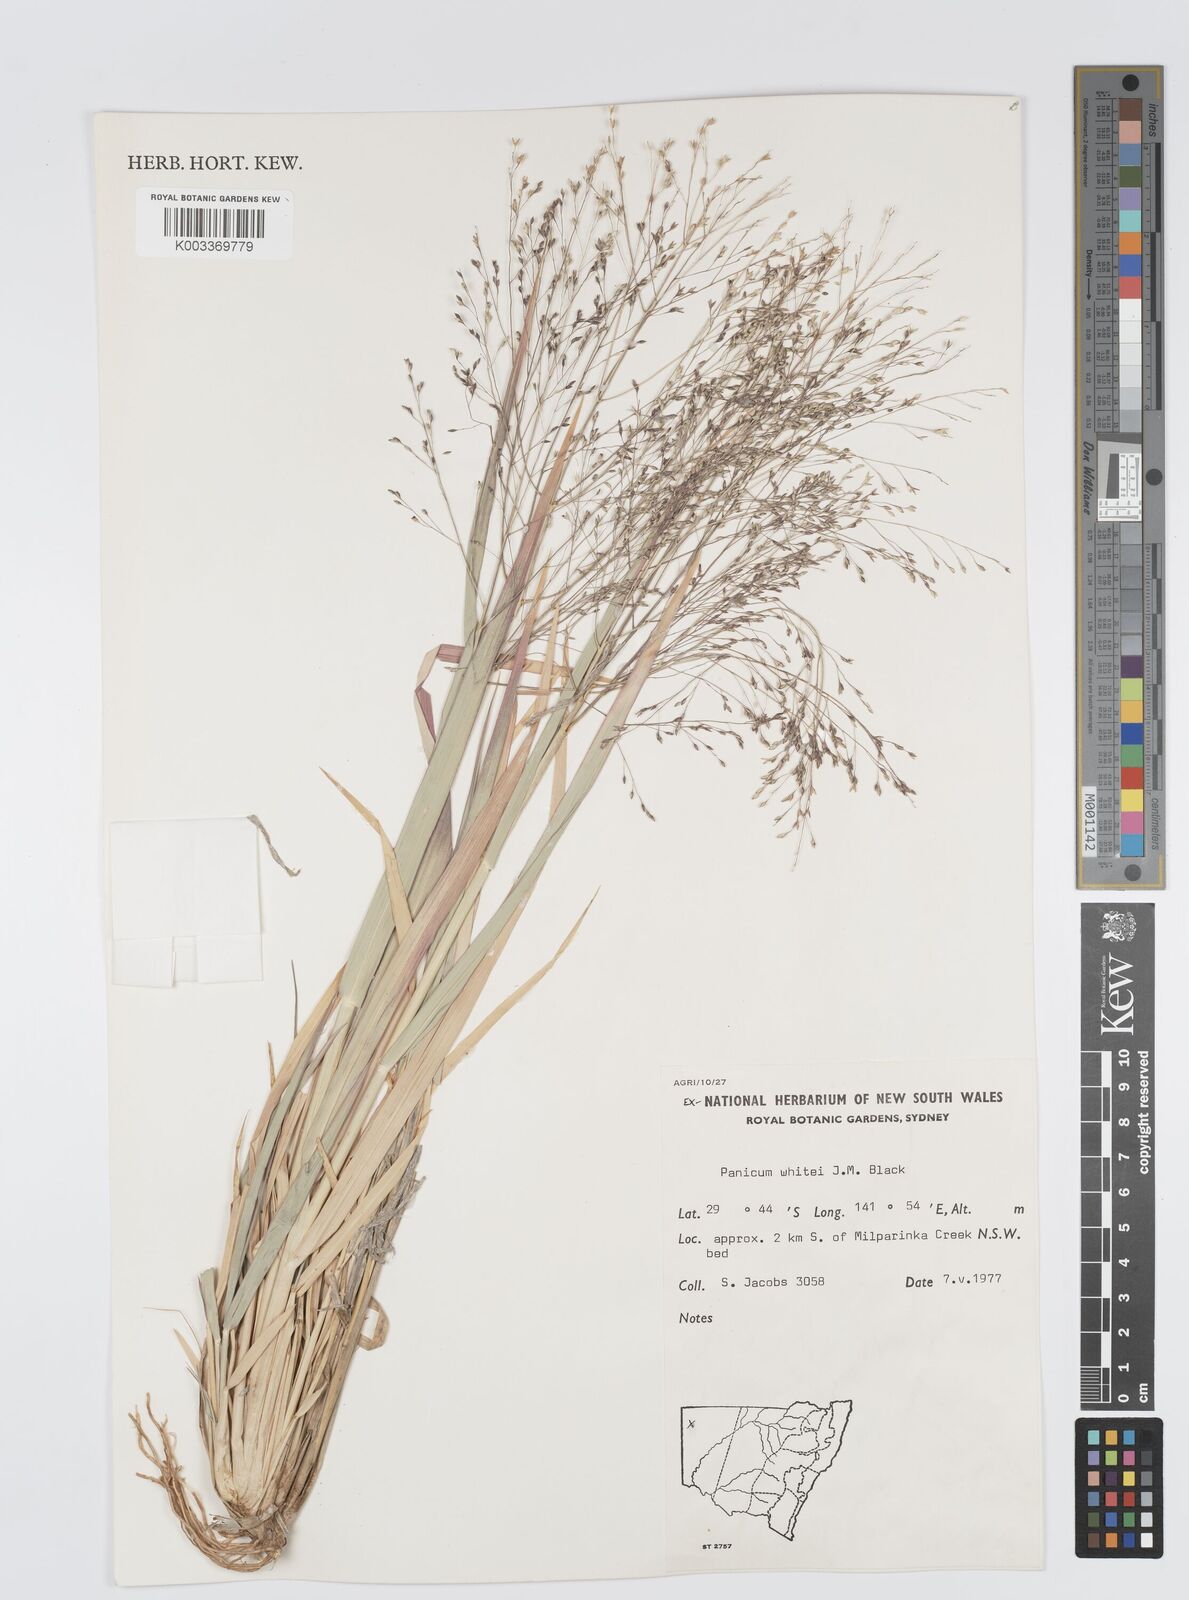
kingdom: Plantae
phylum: Tracheophyta
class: Liliopsida
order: Poales
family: Poaceae
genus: Panicum
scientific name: Panicum laevinode
